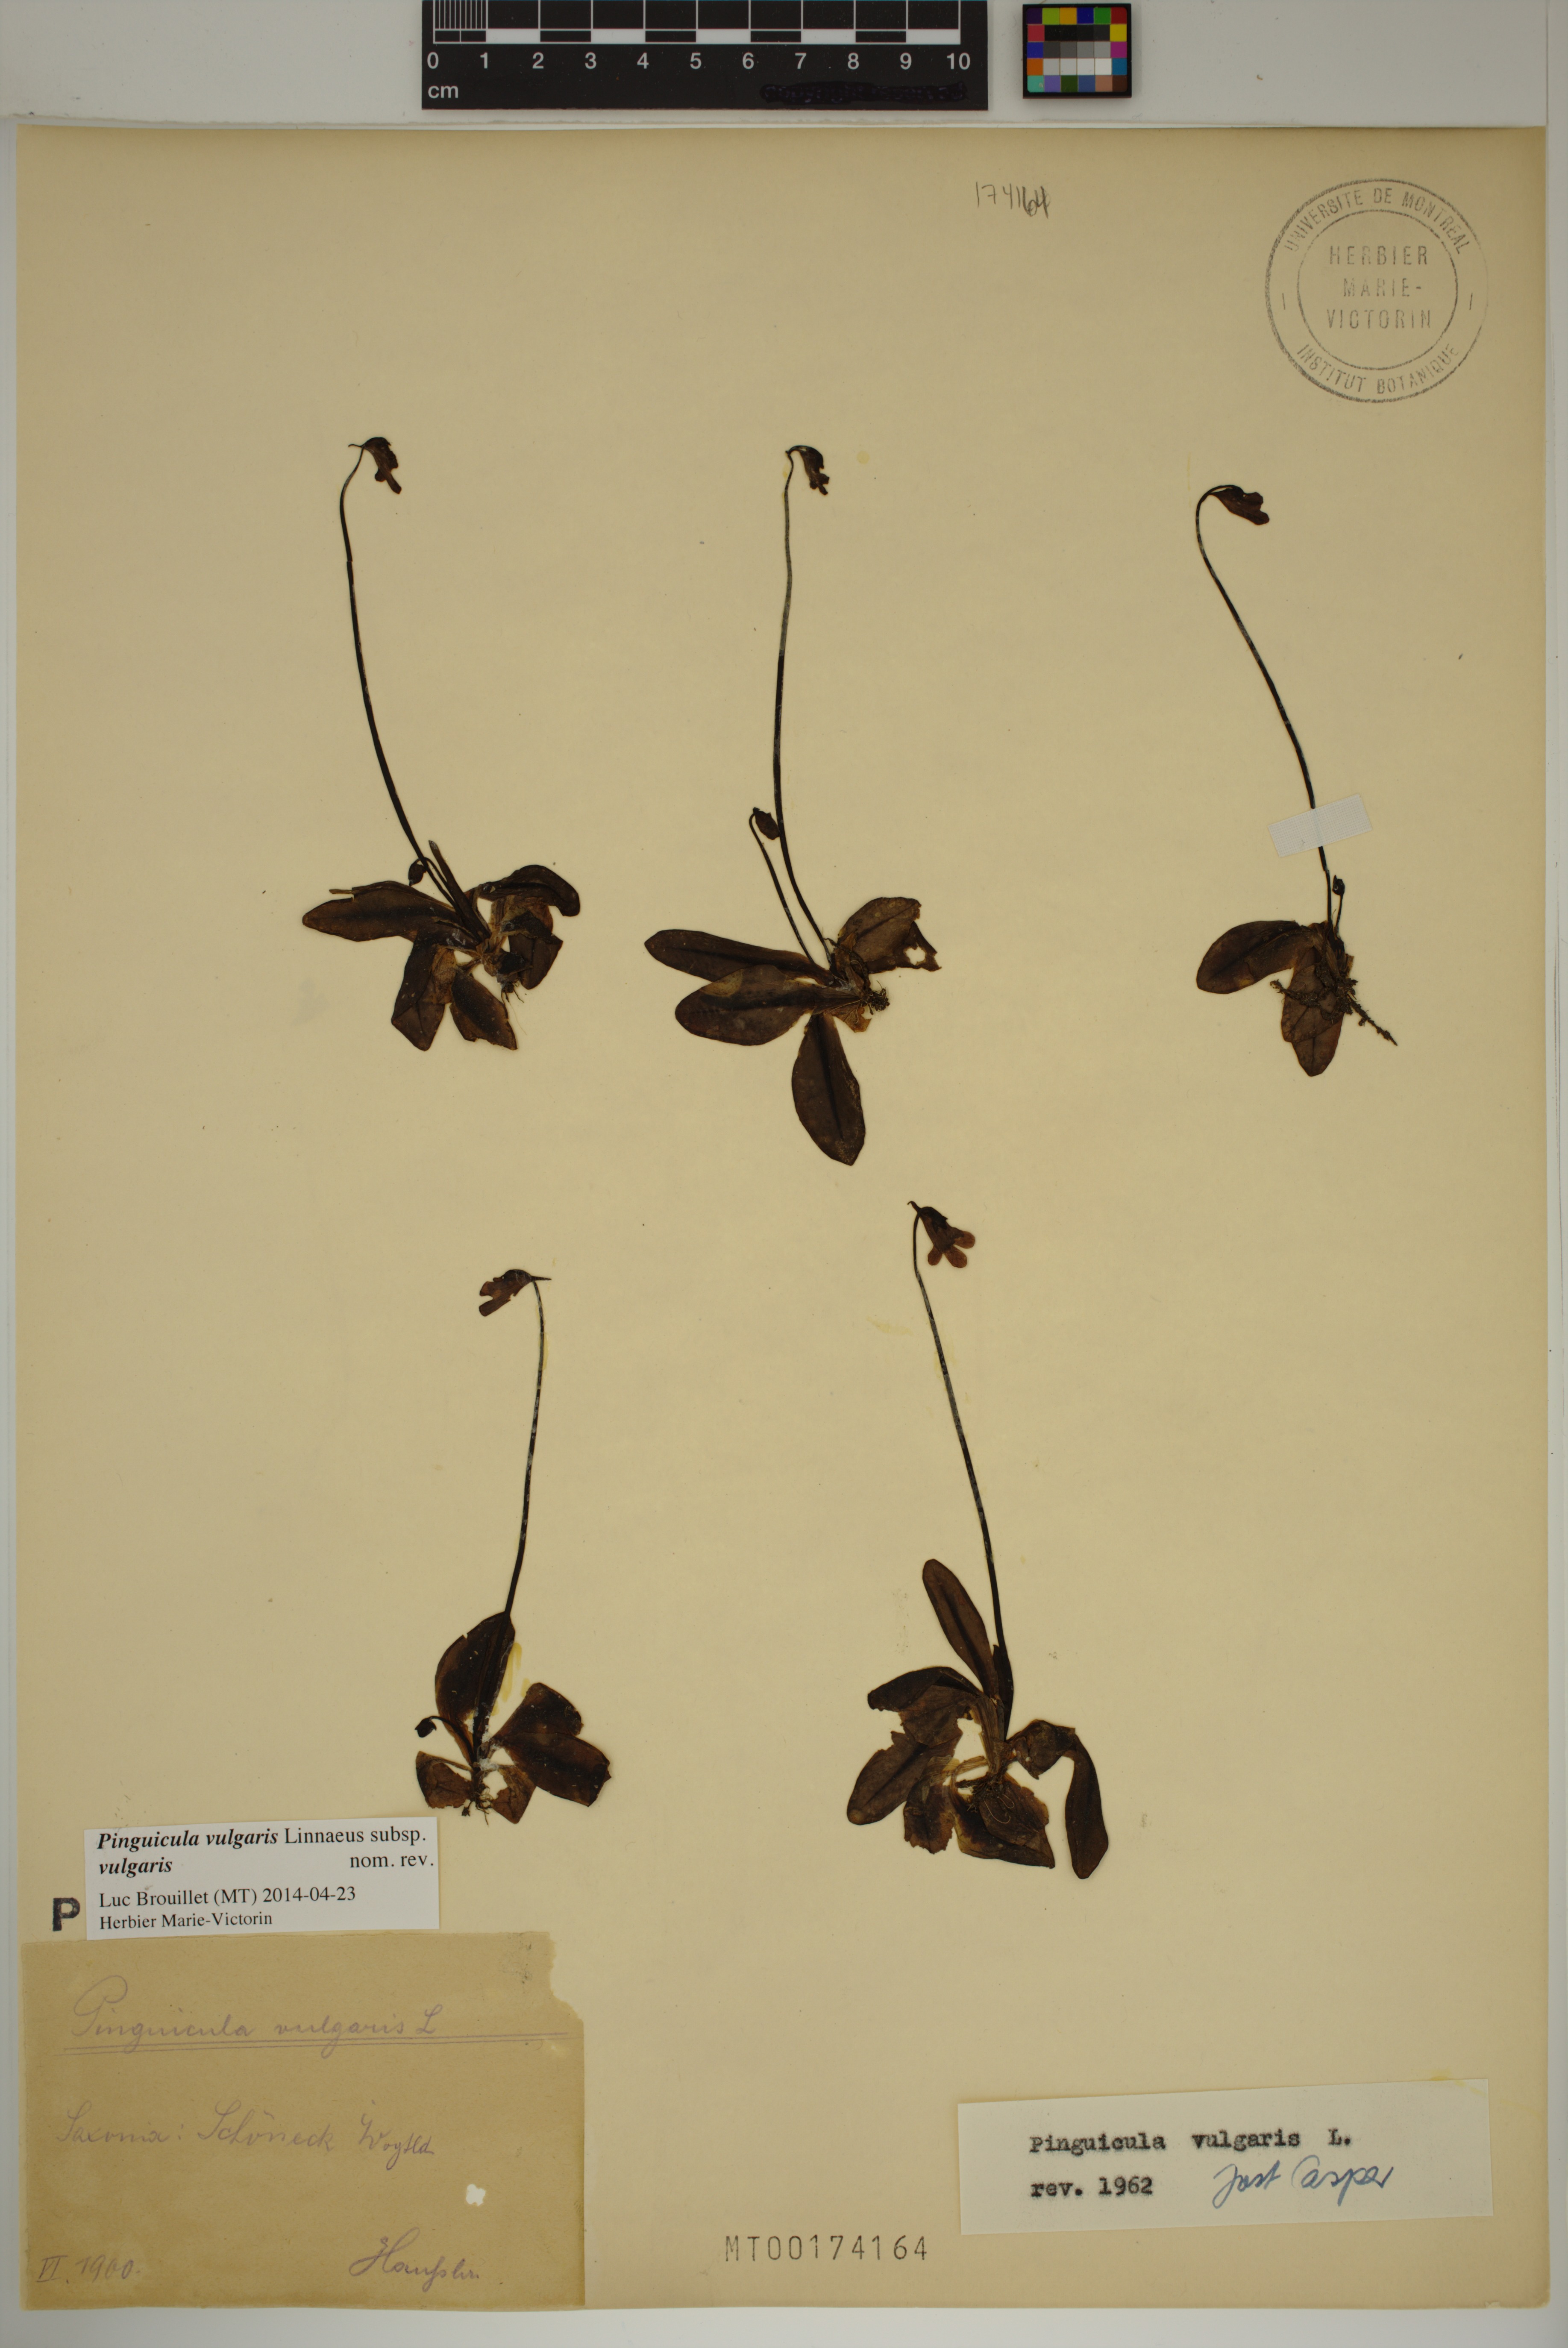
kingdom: Plantae
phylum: Tracheophyta
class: Magnoliopsida
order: Lamiales
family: Lentibulariaceae
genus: Pinguicula
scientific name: Pinguicula vulgaris
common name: Common butterwort
